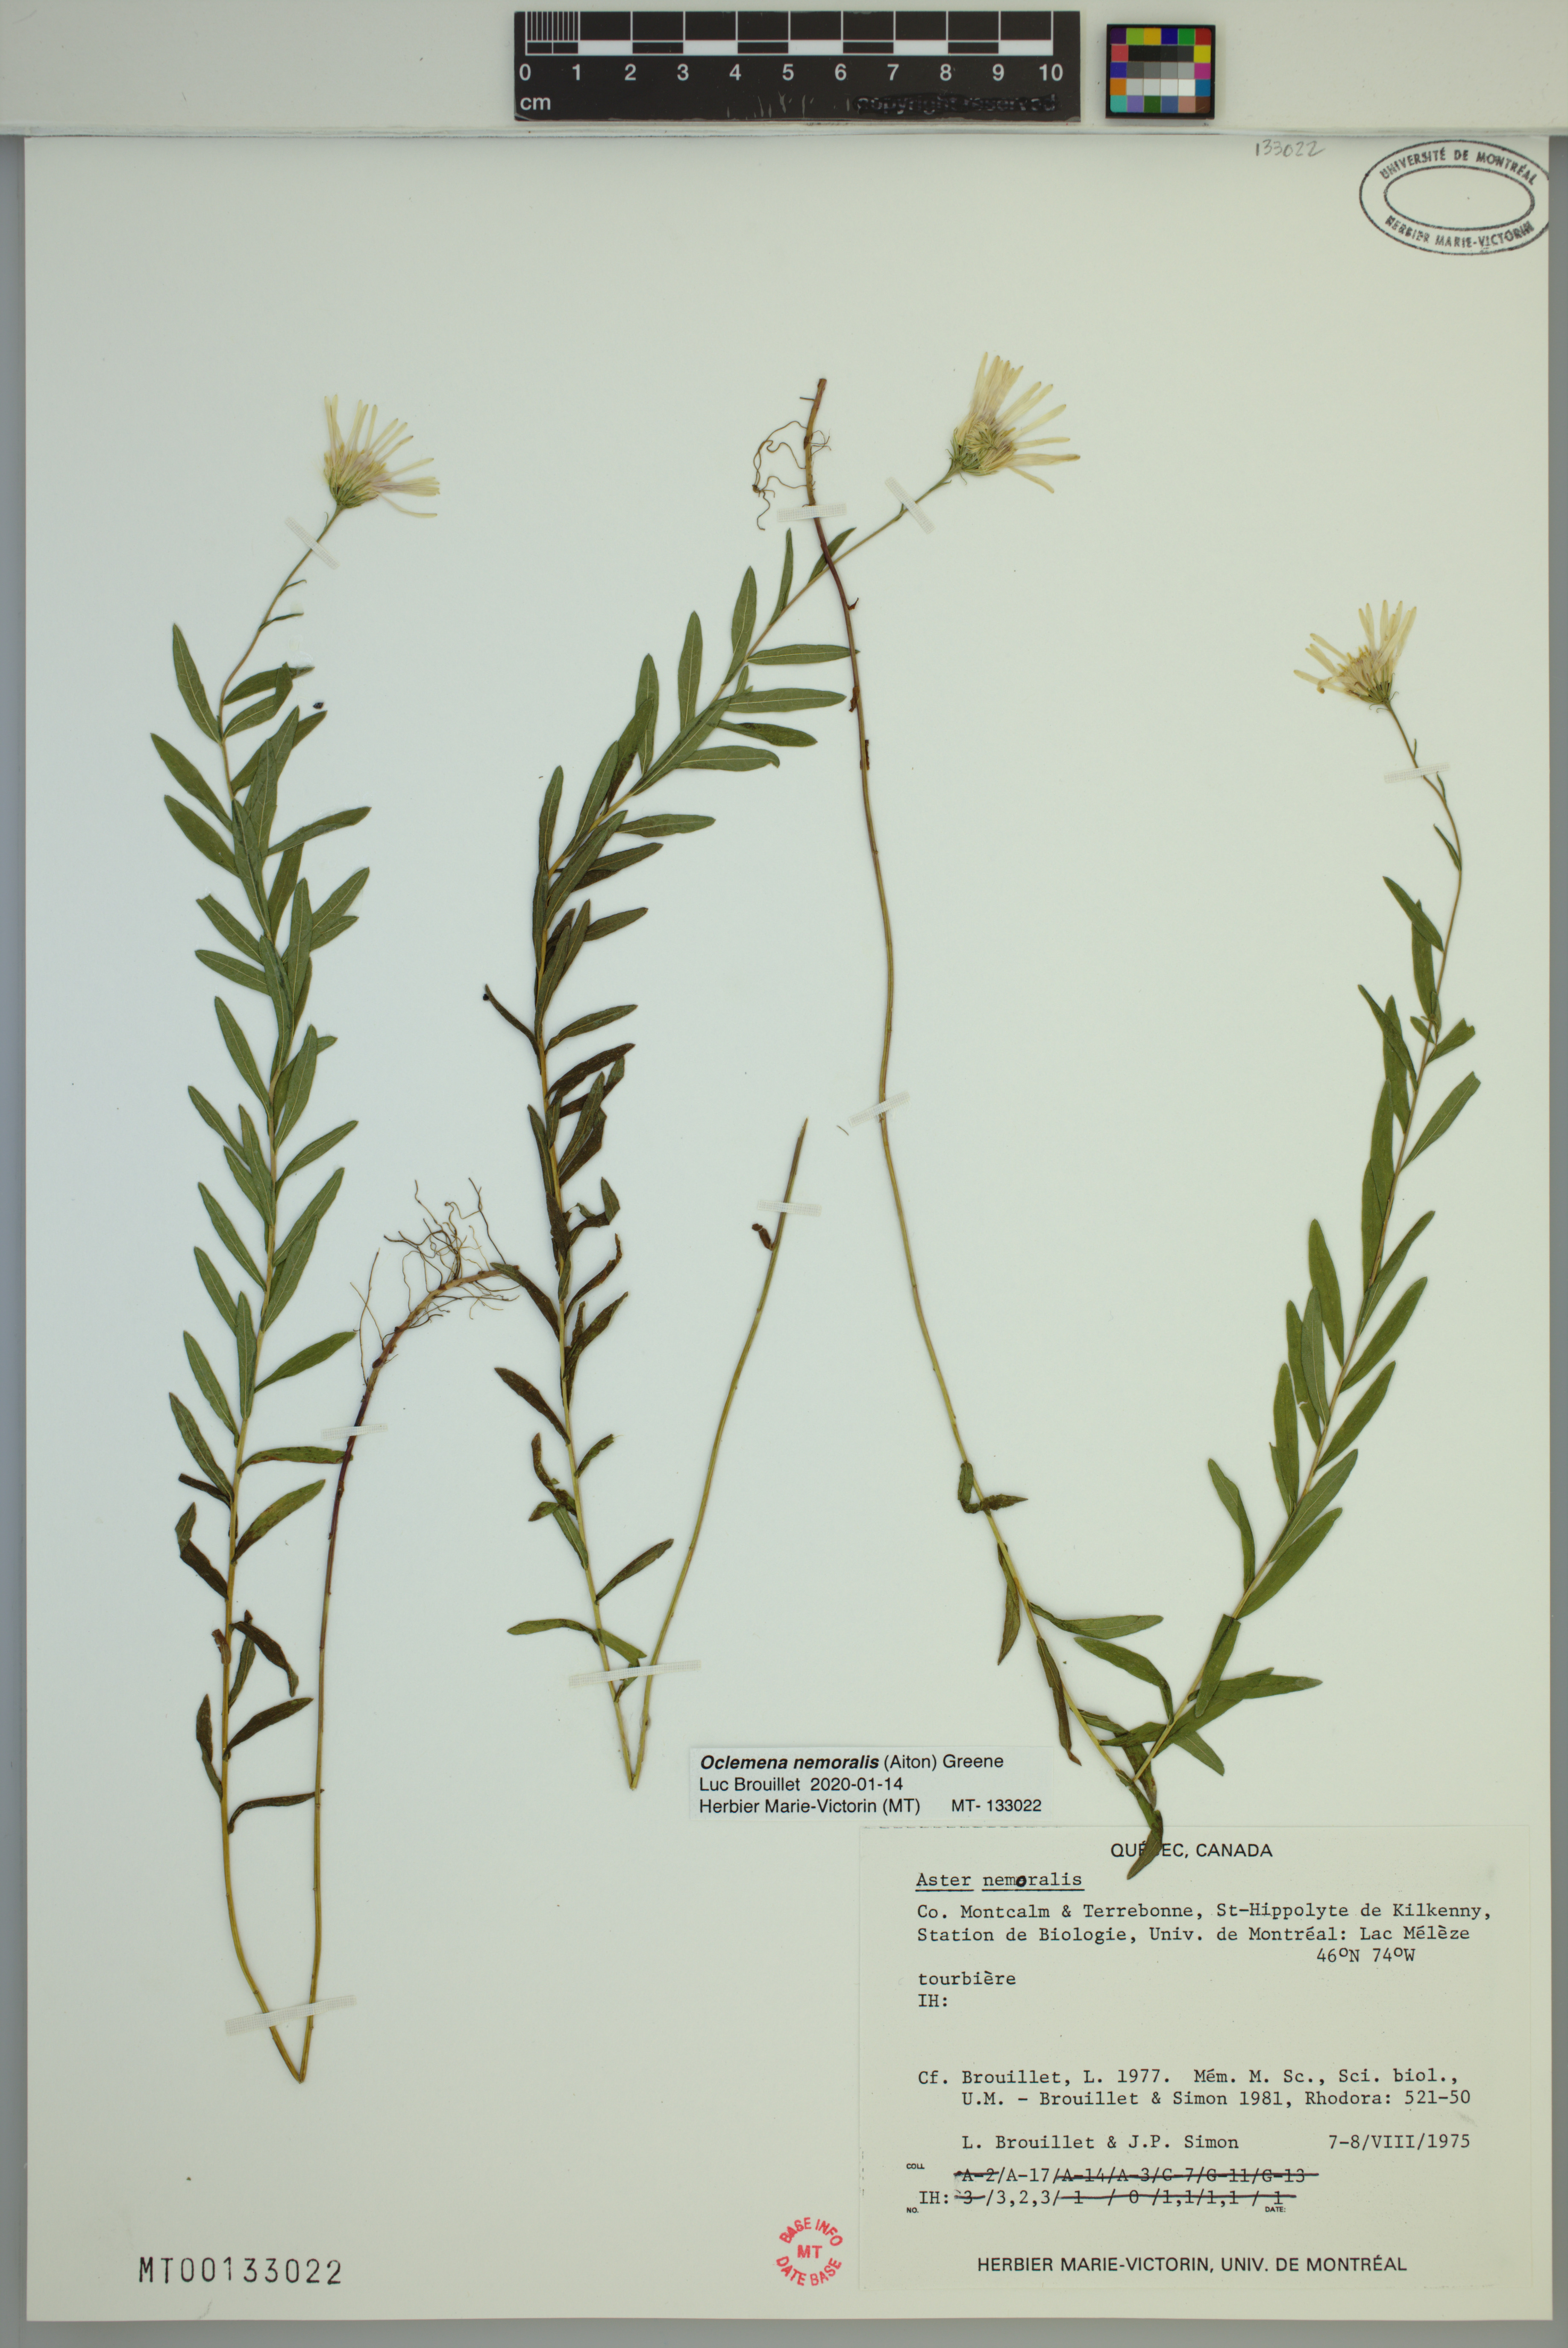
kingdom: Plantae
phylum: Tracheophyta
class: Magnoliopsida
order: Asterales
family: Asteraceae
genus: Oclemena
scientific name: Oclemena nemoralis
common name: Bog aster
